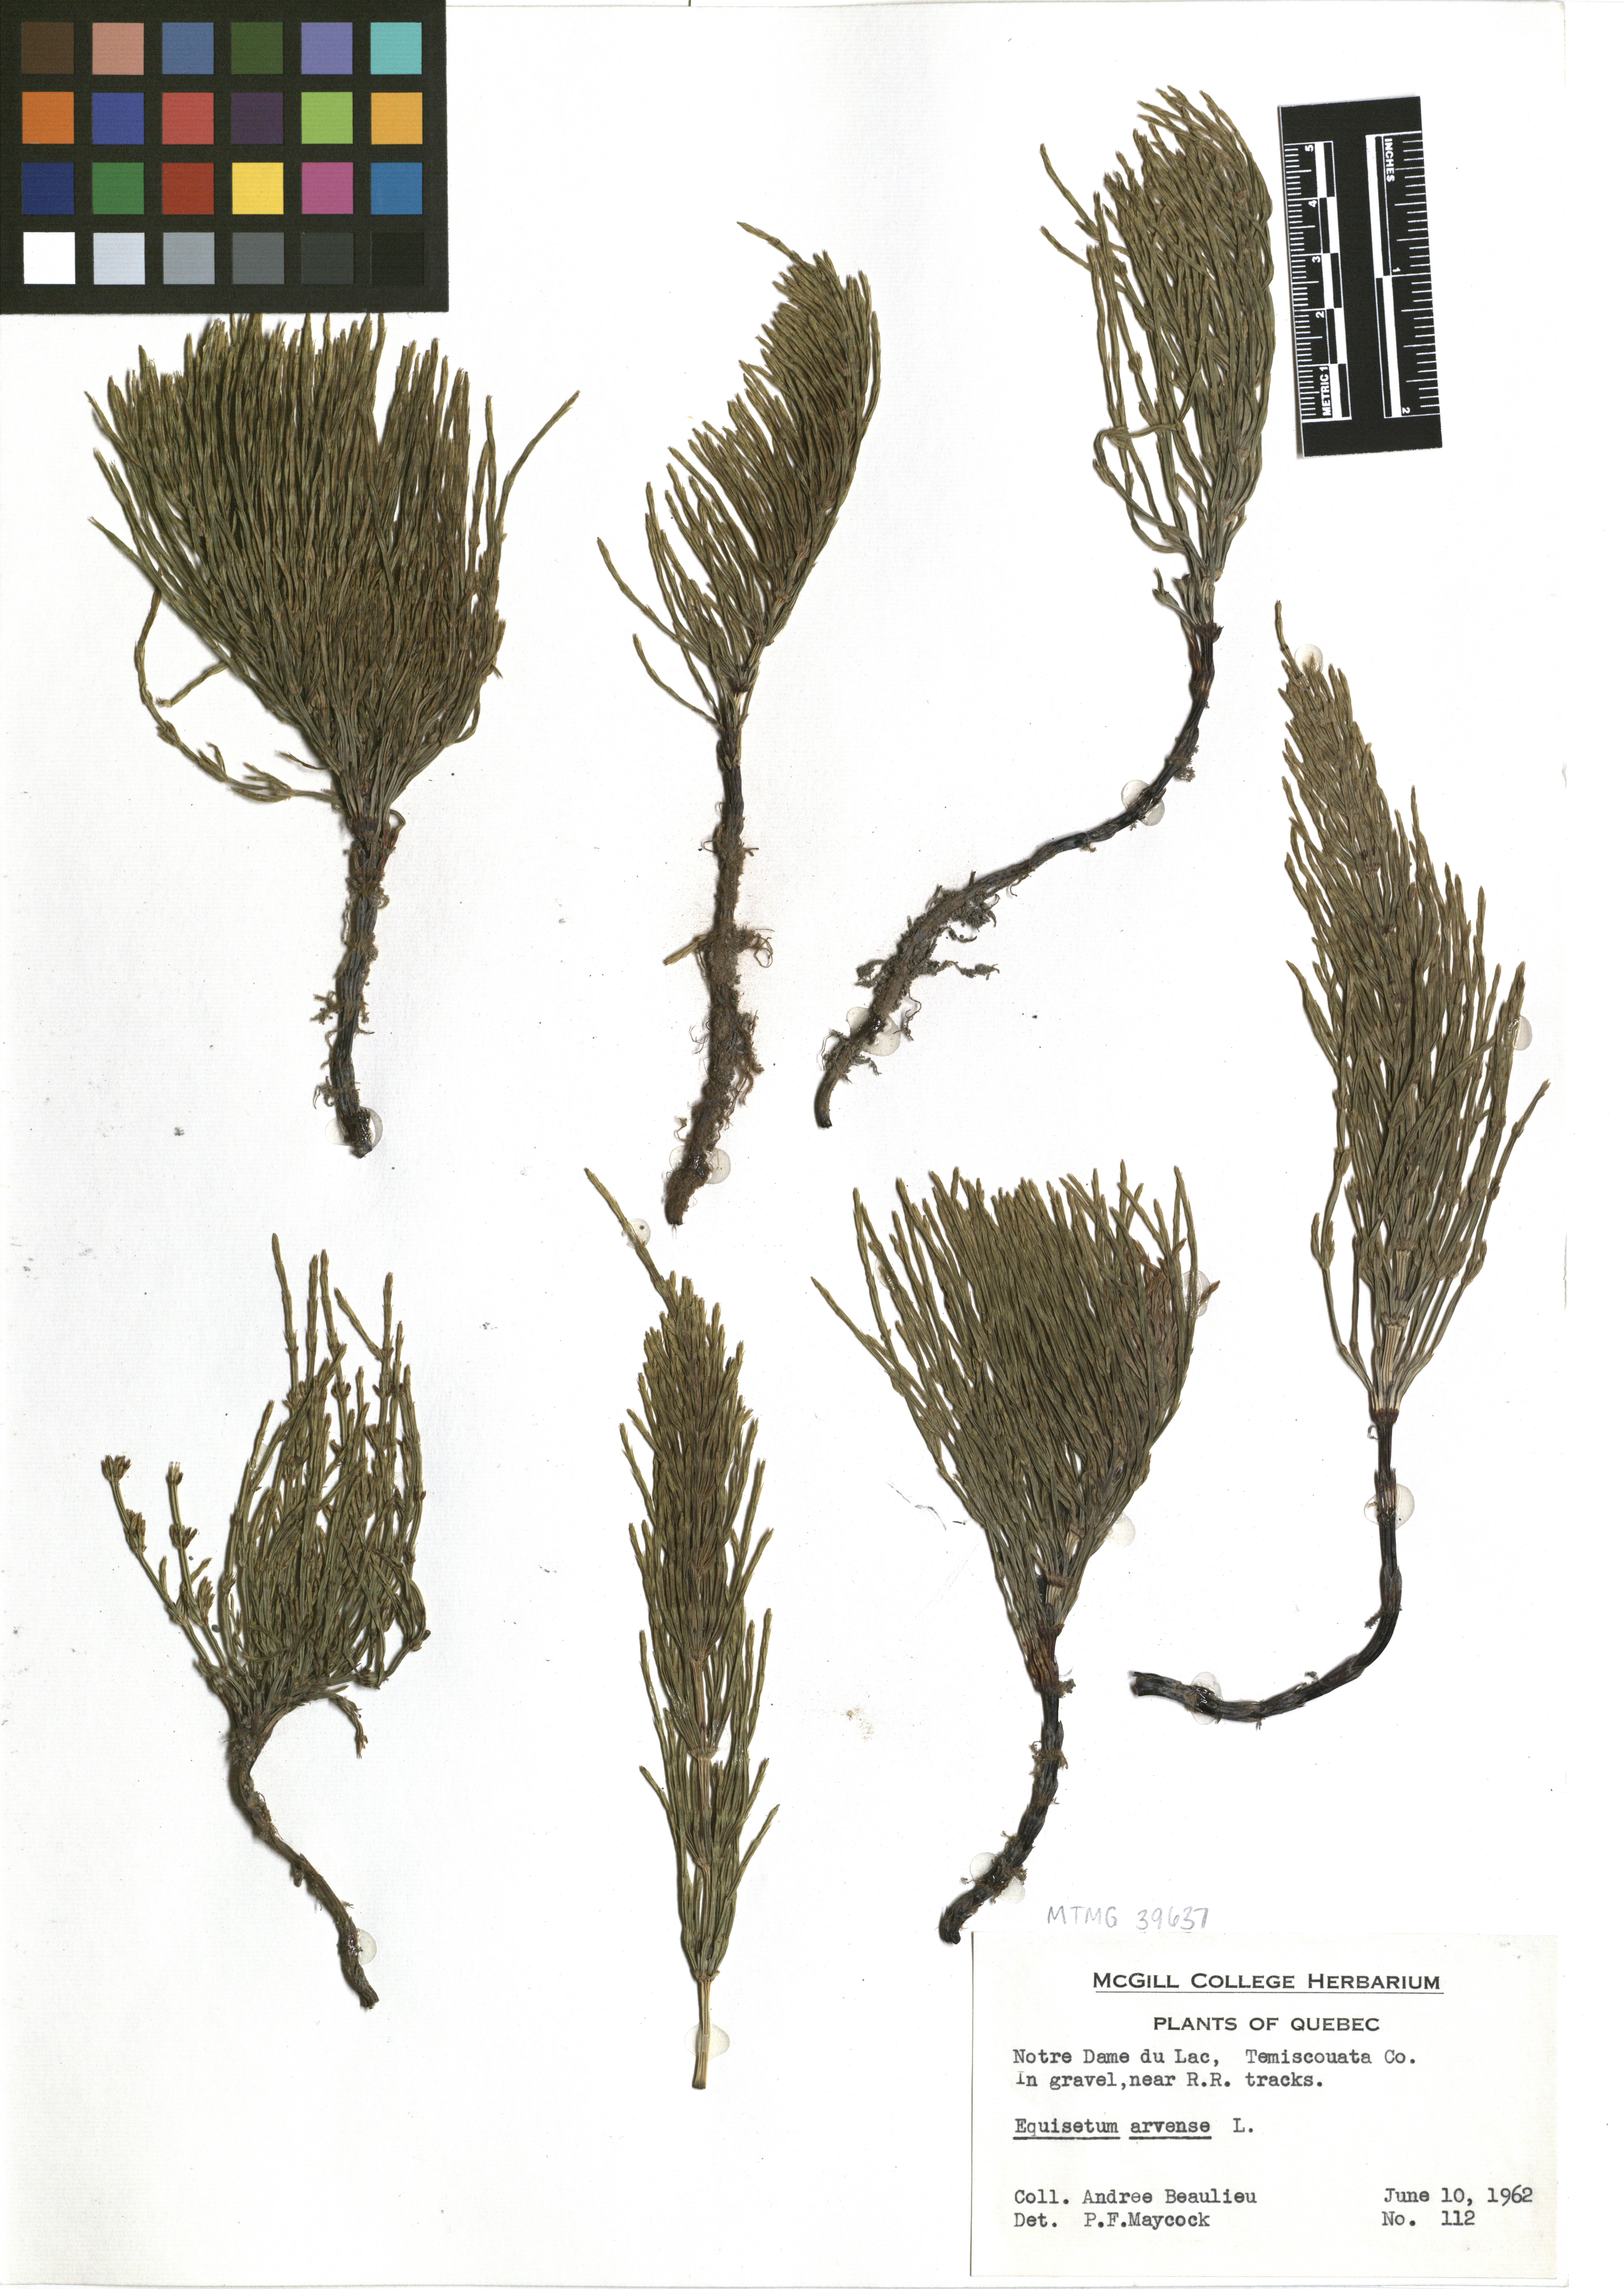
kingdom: Plantae
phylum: Tracheophyta
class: Polypodiopsida
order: Equisetales
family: Equisetaceae
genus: Equisetum
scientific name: Equisetum arvense
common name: Field horsetail
